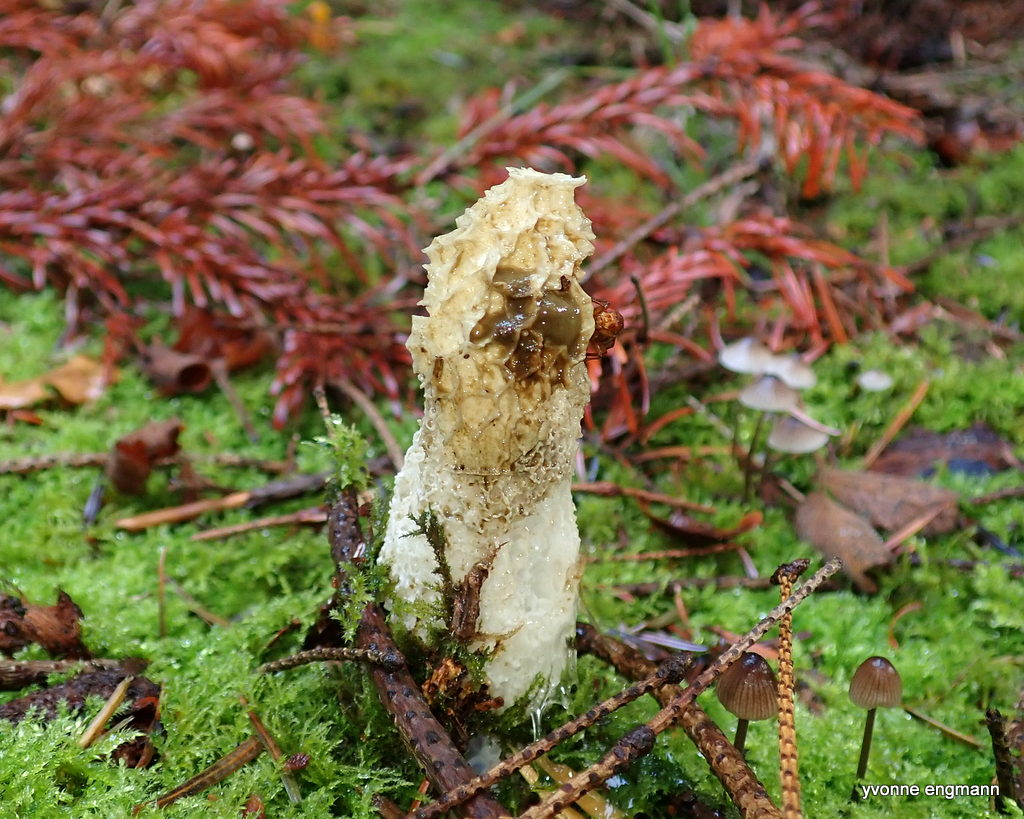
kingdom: Fungi
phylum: Basidiomycota
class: Agaricomycetes
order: Phallales
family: Phallaceae
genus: Phallus
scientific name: Phallus impudicus
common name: almindelig stinksvamp
